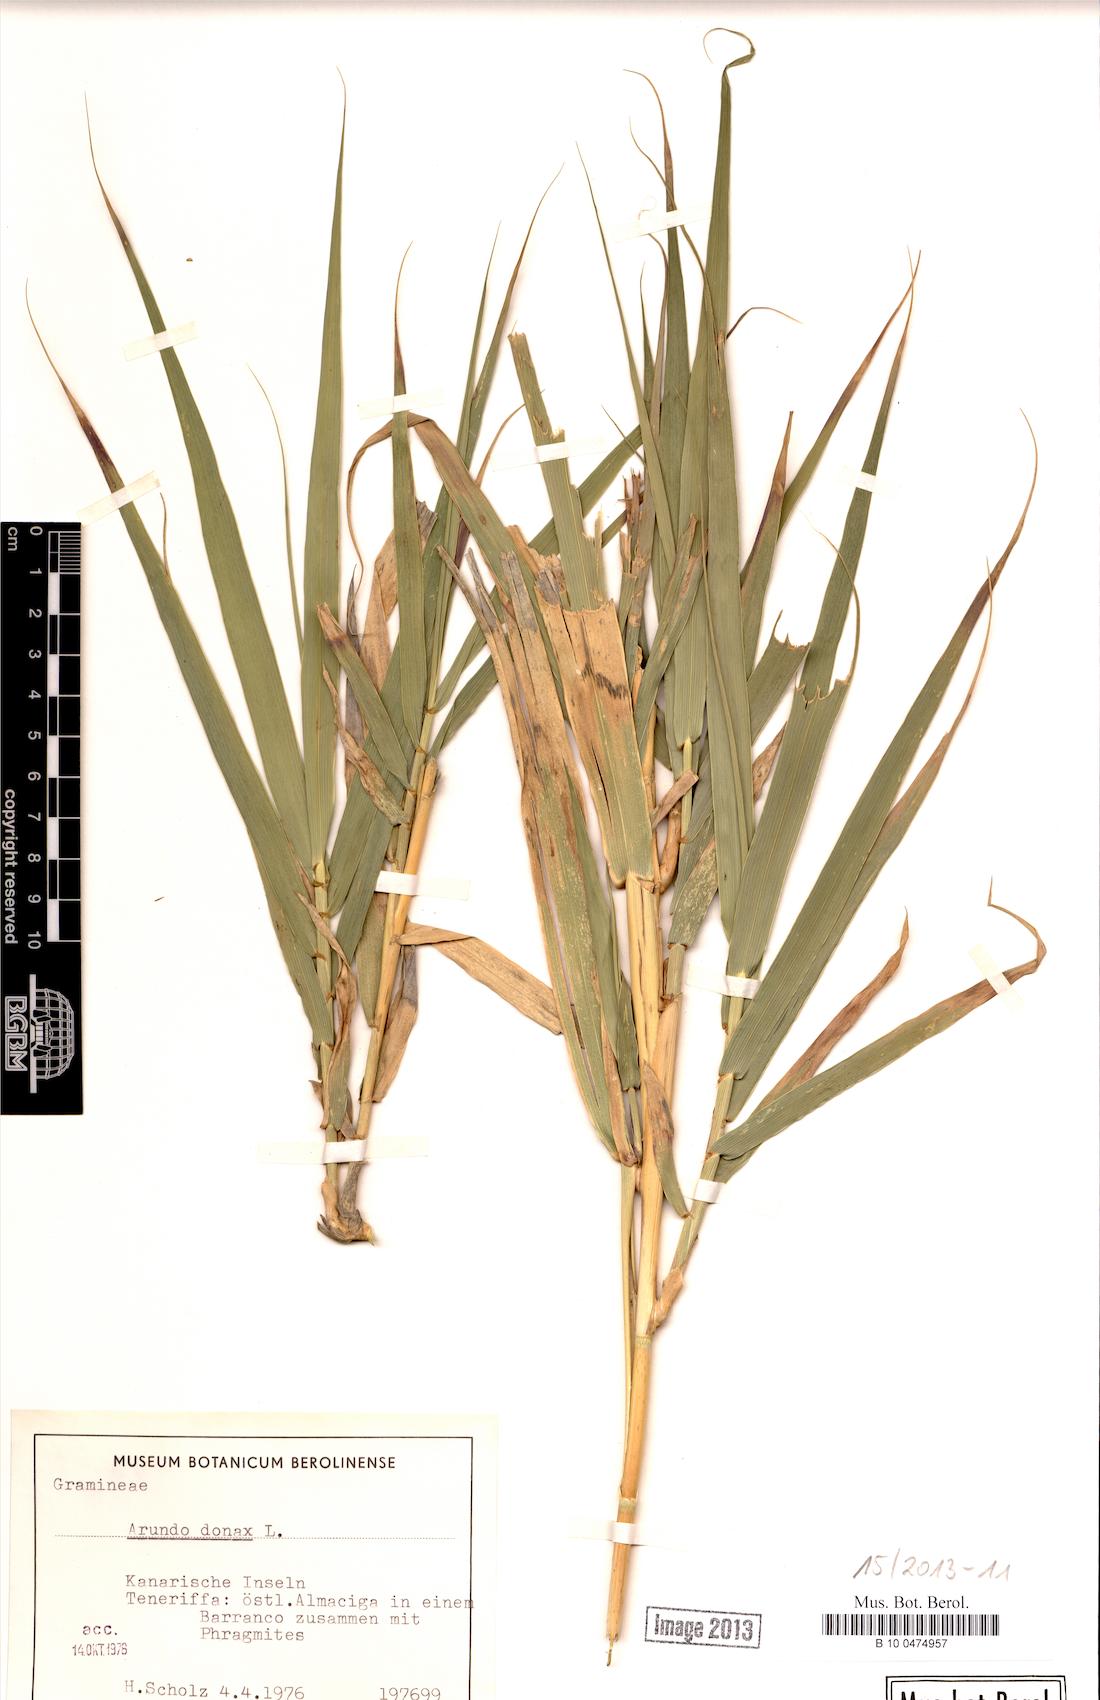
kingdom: Plantae
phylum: Tracheophyta
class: Liliopsida
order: Poales
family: Poaceae
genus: Arundo
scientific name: Arundo donax
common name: Giant reed
